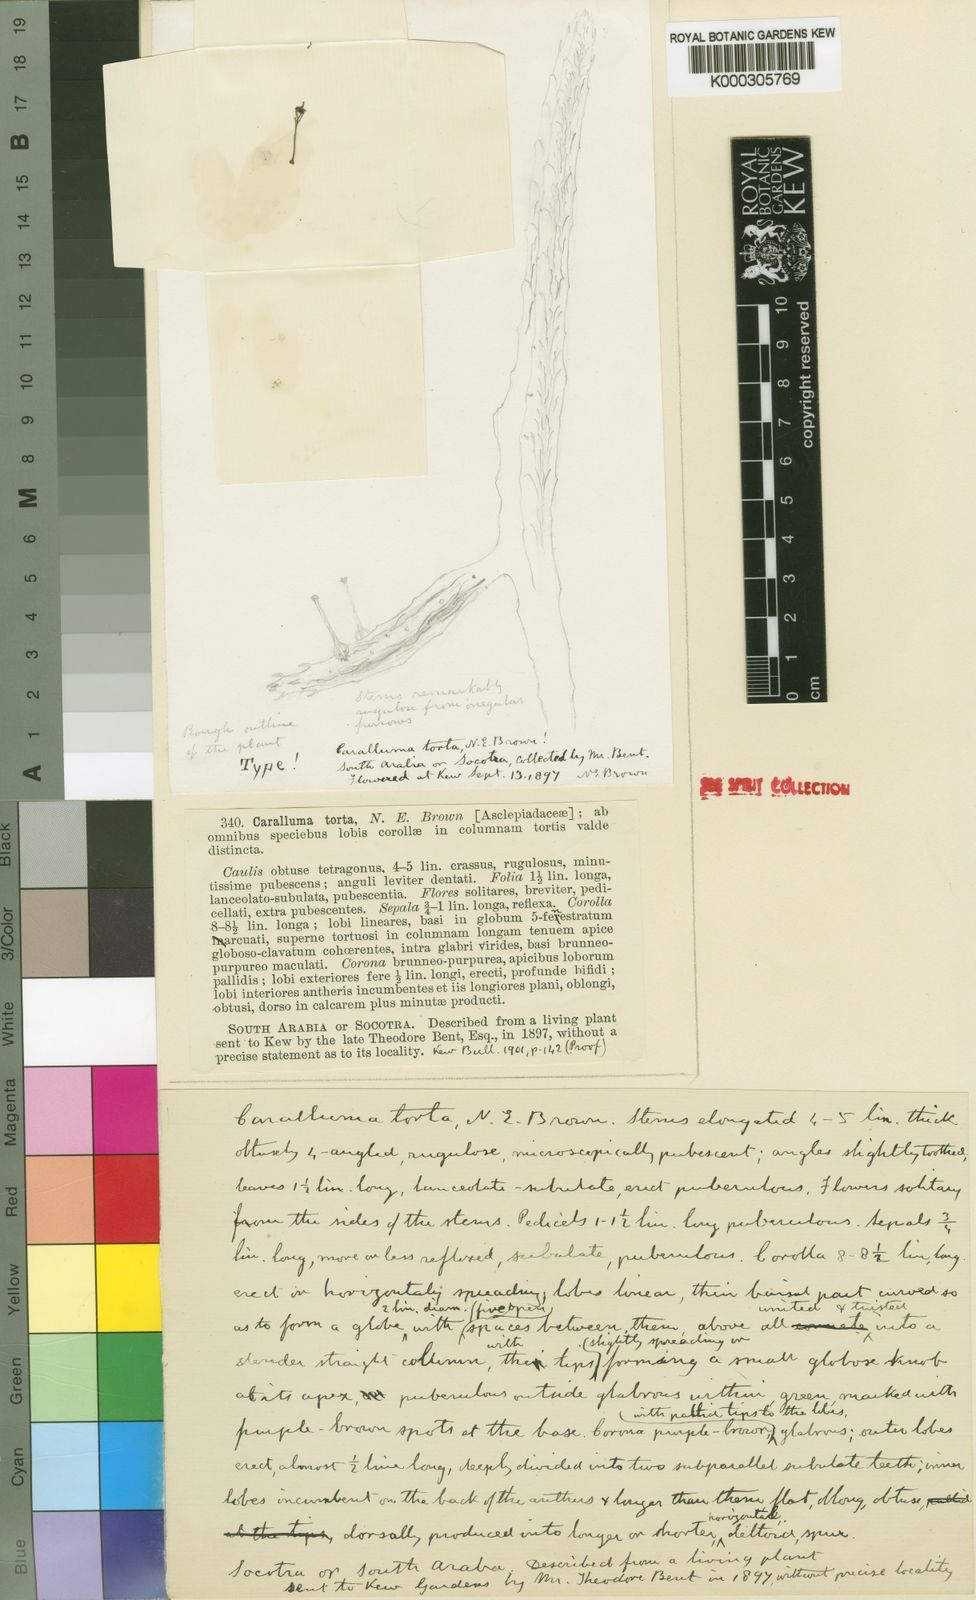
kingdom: Plantae
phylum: Tracheophyta
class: Magnoliopsida
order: Gentianales
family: Apocynaceae
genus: Ceropegia
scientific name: Ceropegia torta
